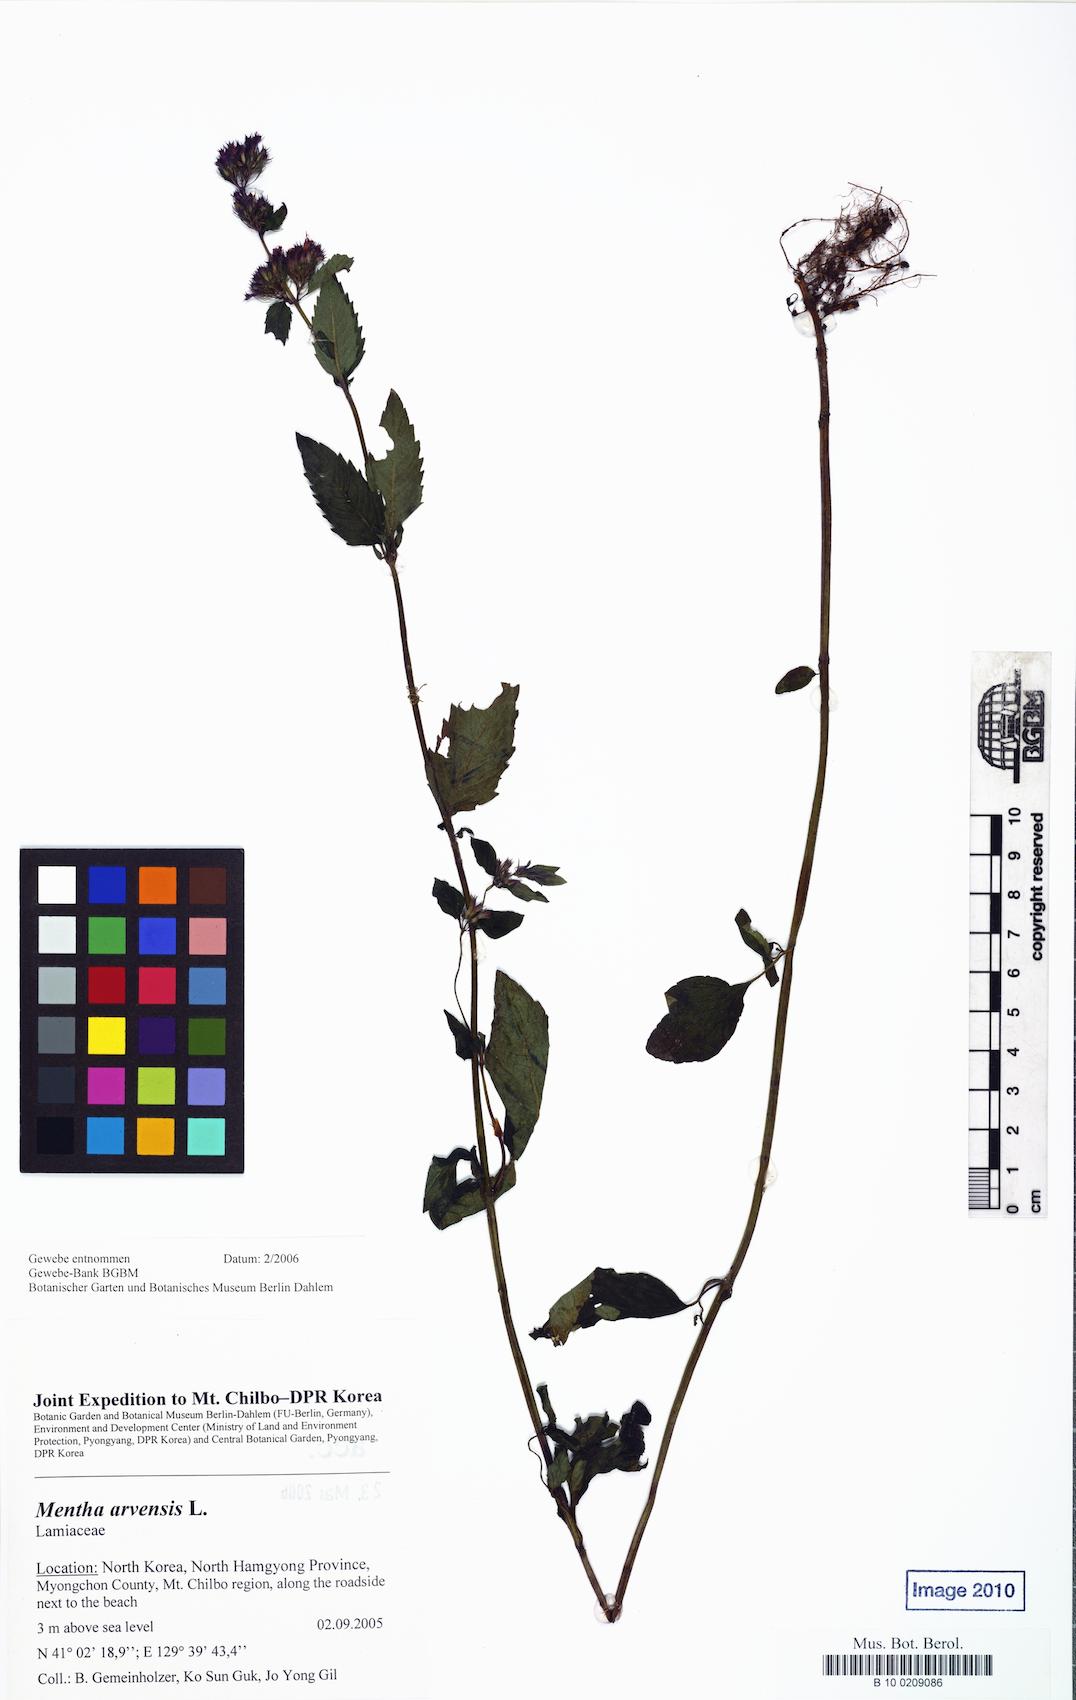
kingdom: Plantae
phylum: Tracheophyta
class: Magnoliopsida
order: Lamiales
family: Lamiaceae
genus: Mentha
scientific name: Mentha arvensis
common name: Corn mint
